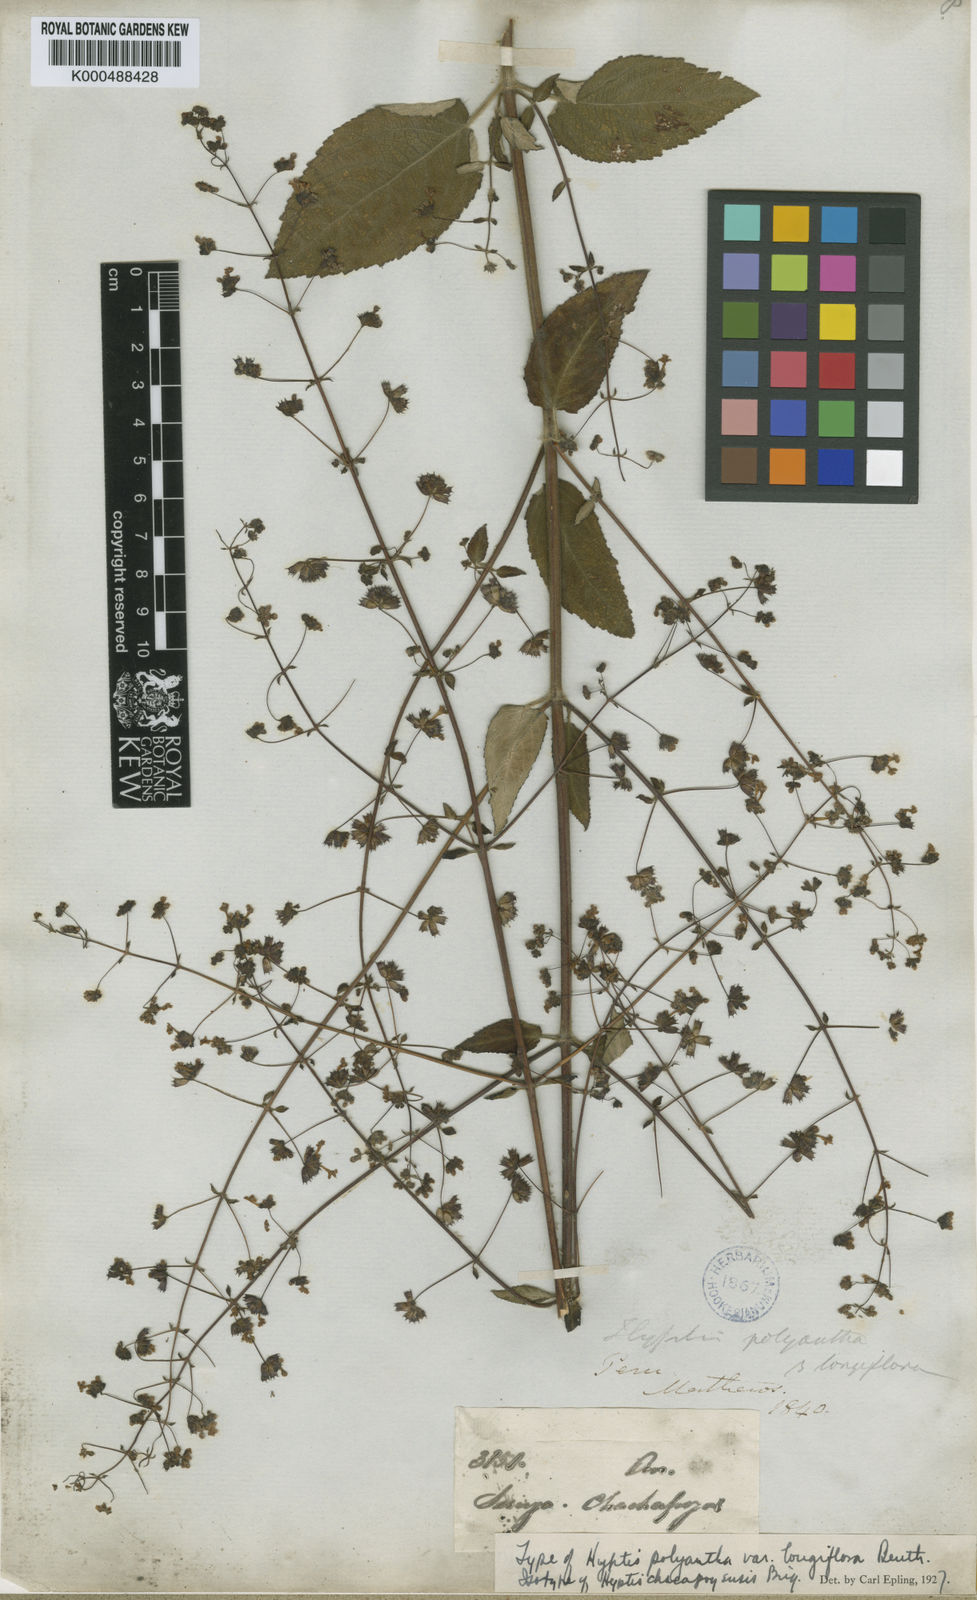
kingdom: Plantae
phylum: Tracheophyta
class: Magnoliopsida
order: Lamiales
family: Lamiaceae
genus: Mesosphaerum
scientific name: Mesosphaerum chacapoyense
